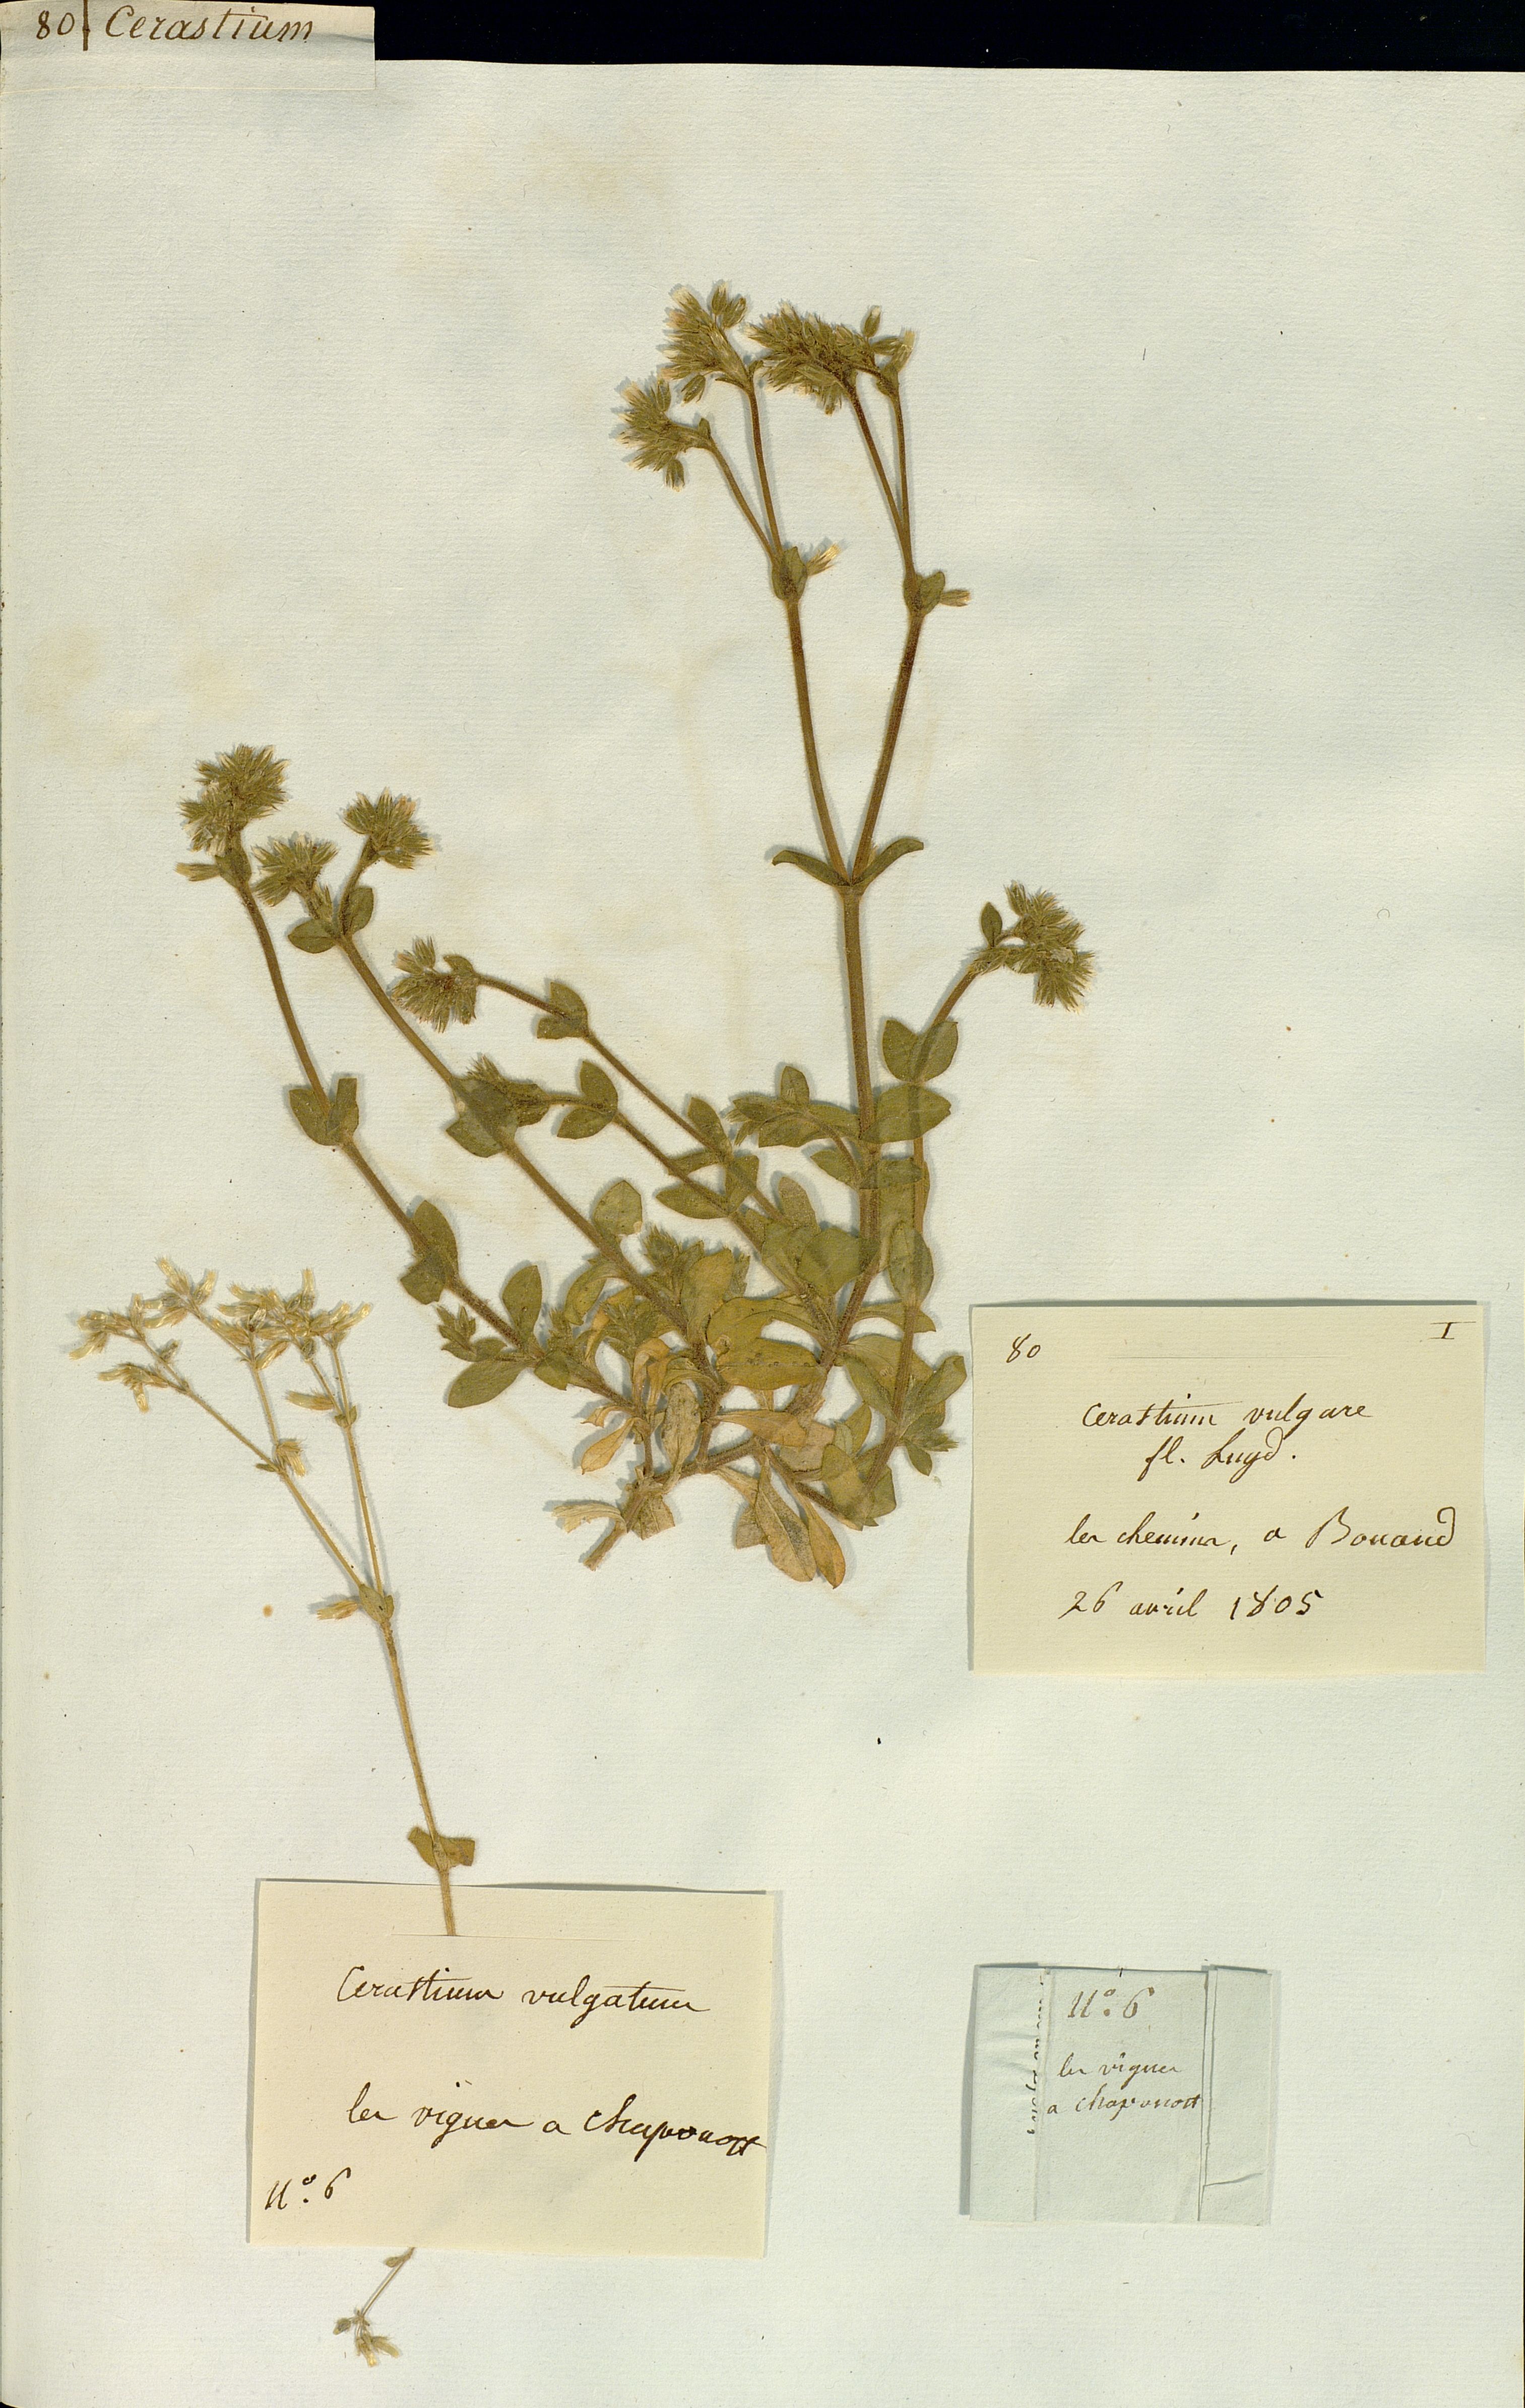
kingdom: Plantae
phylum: Tracheophyta
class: Magnoliopsida
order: Caryophyllales
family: Caryophyllaceae
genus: Cerastium
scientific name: Cerastium
